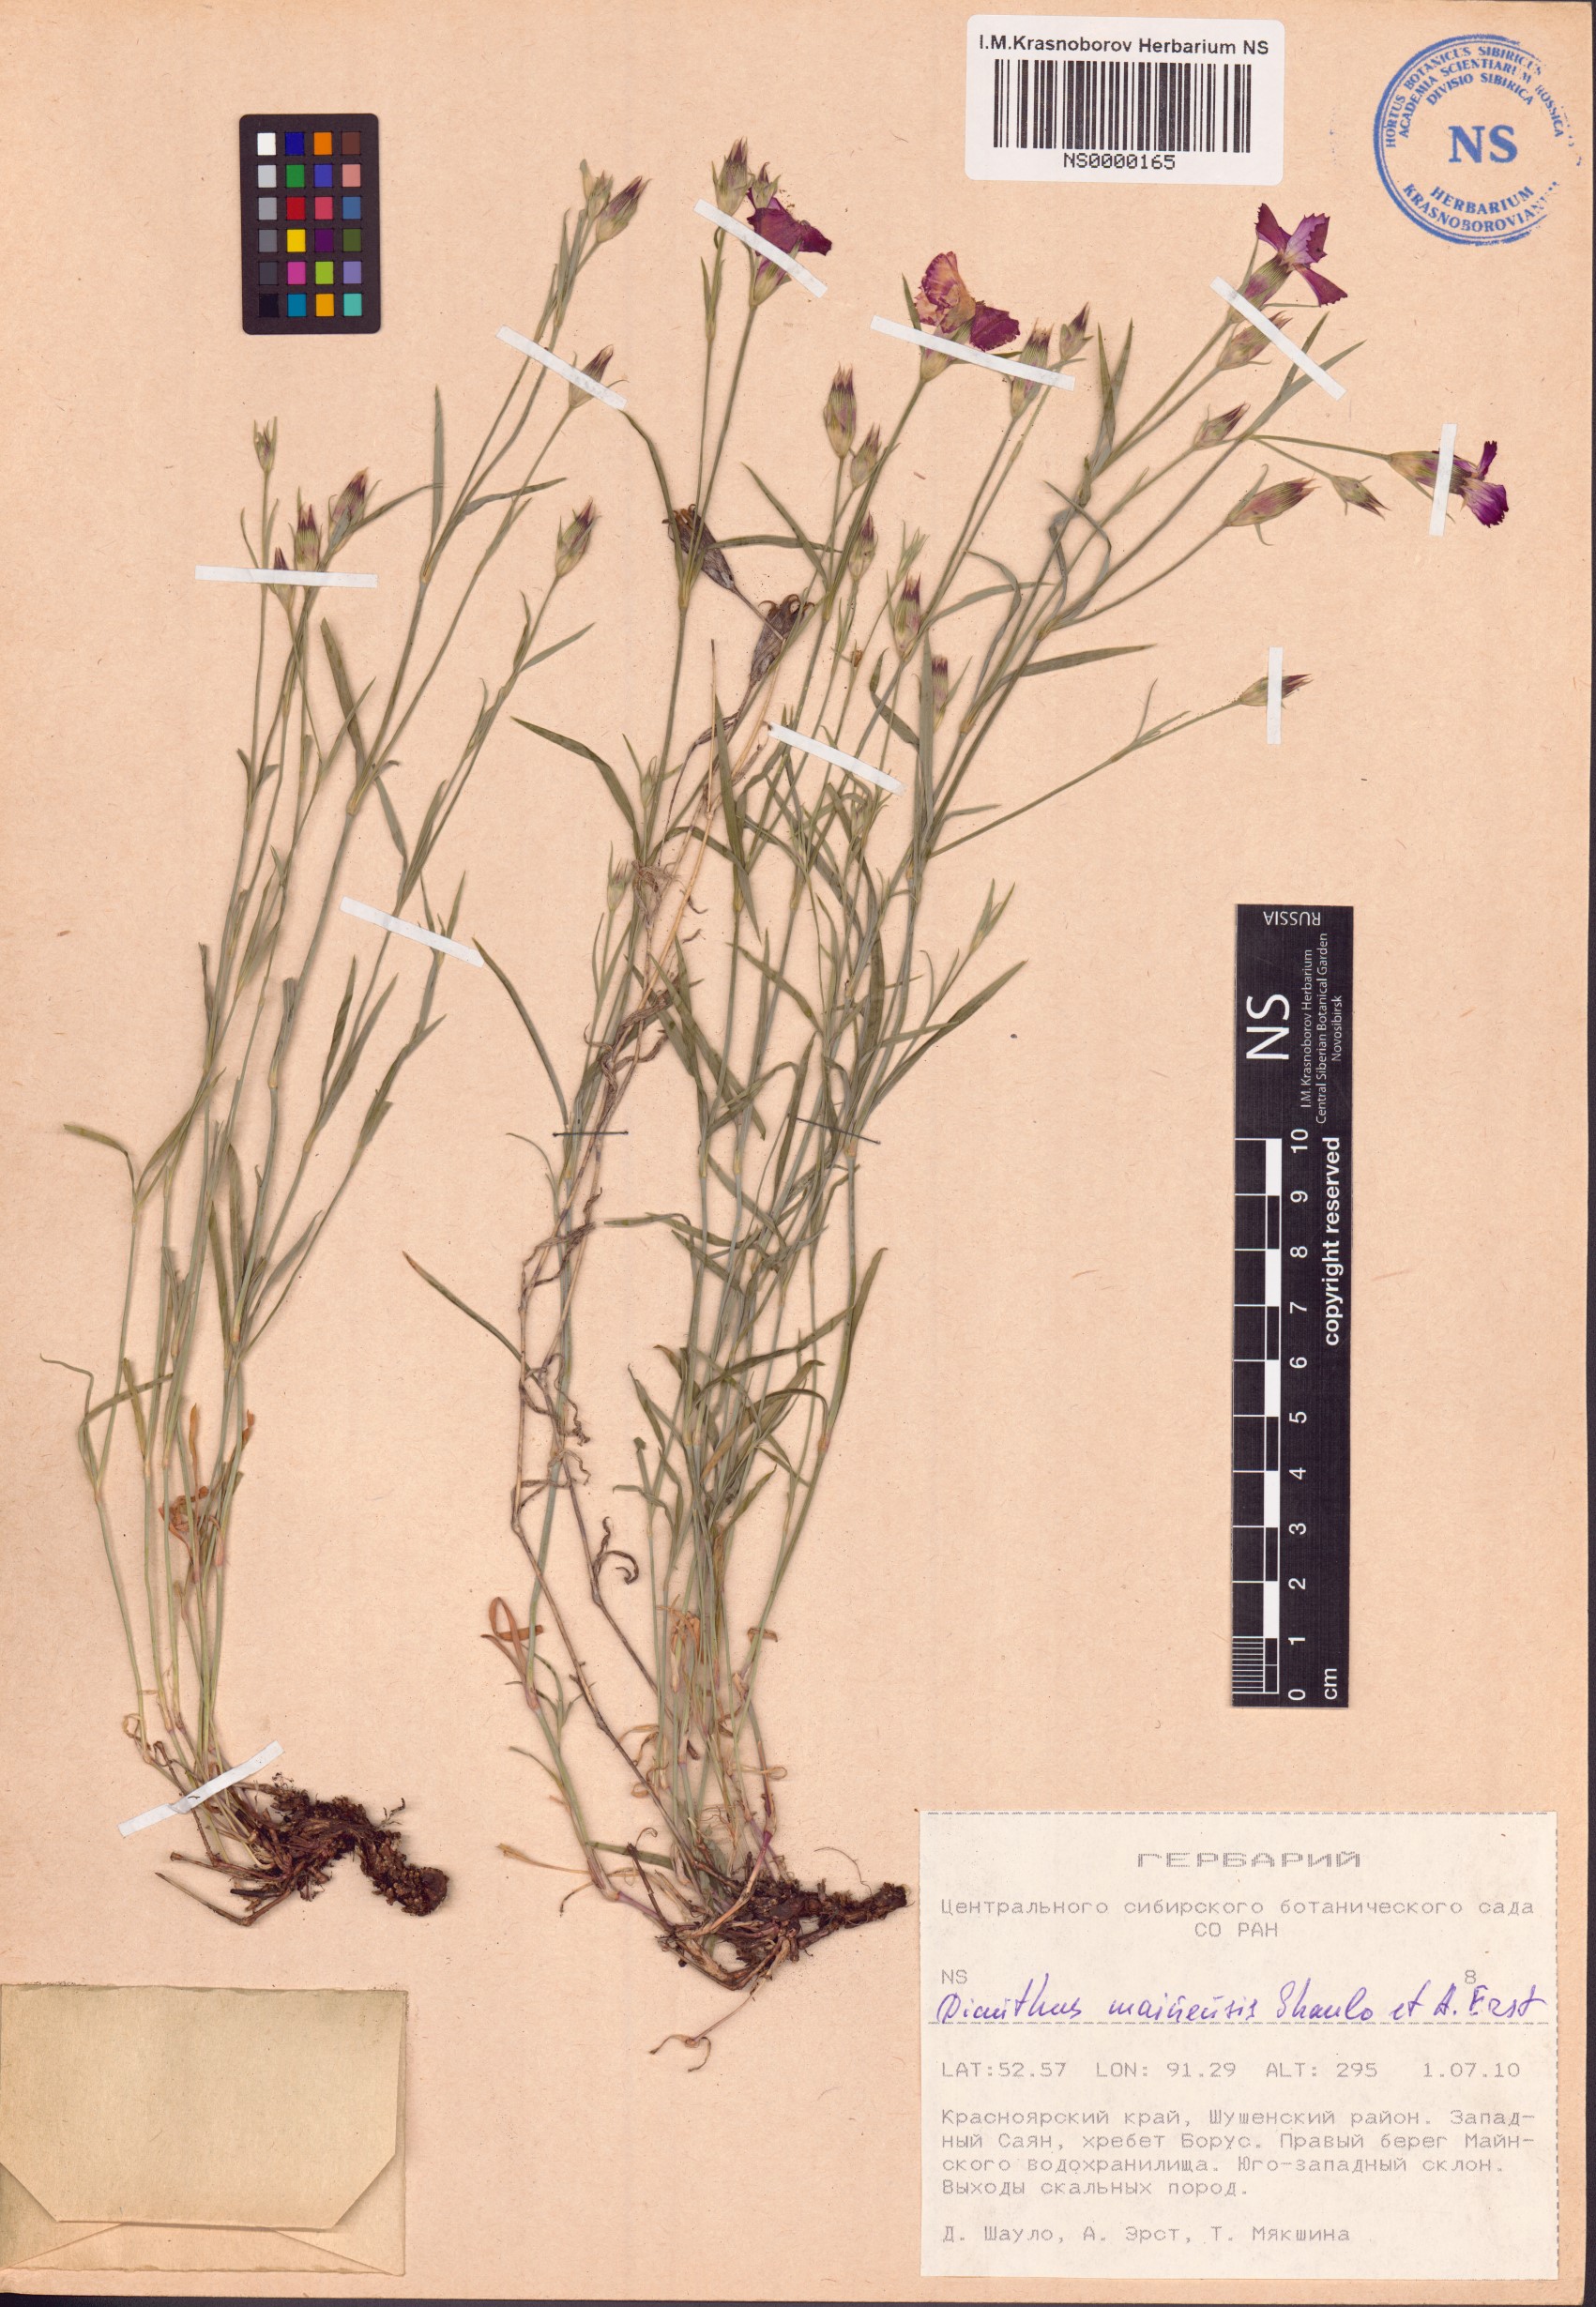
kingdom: Plantae
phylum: Tracheophyta
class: Magnoliopsida
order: Caryophyllales
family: Caryophyllaceae
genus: Dianthus
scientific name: Dianthus mainensis
